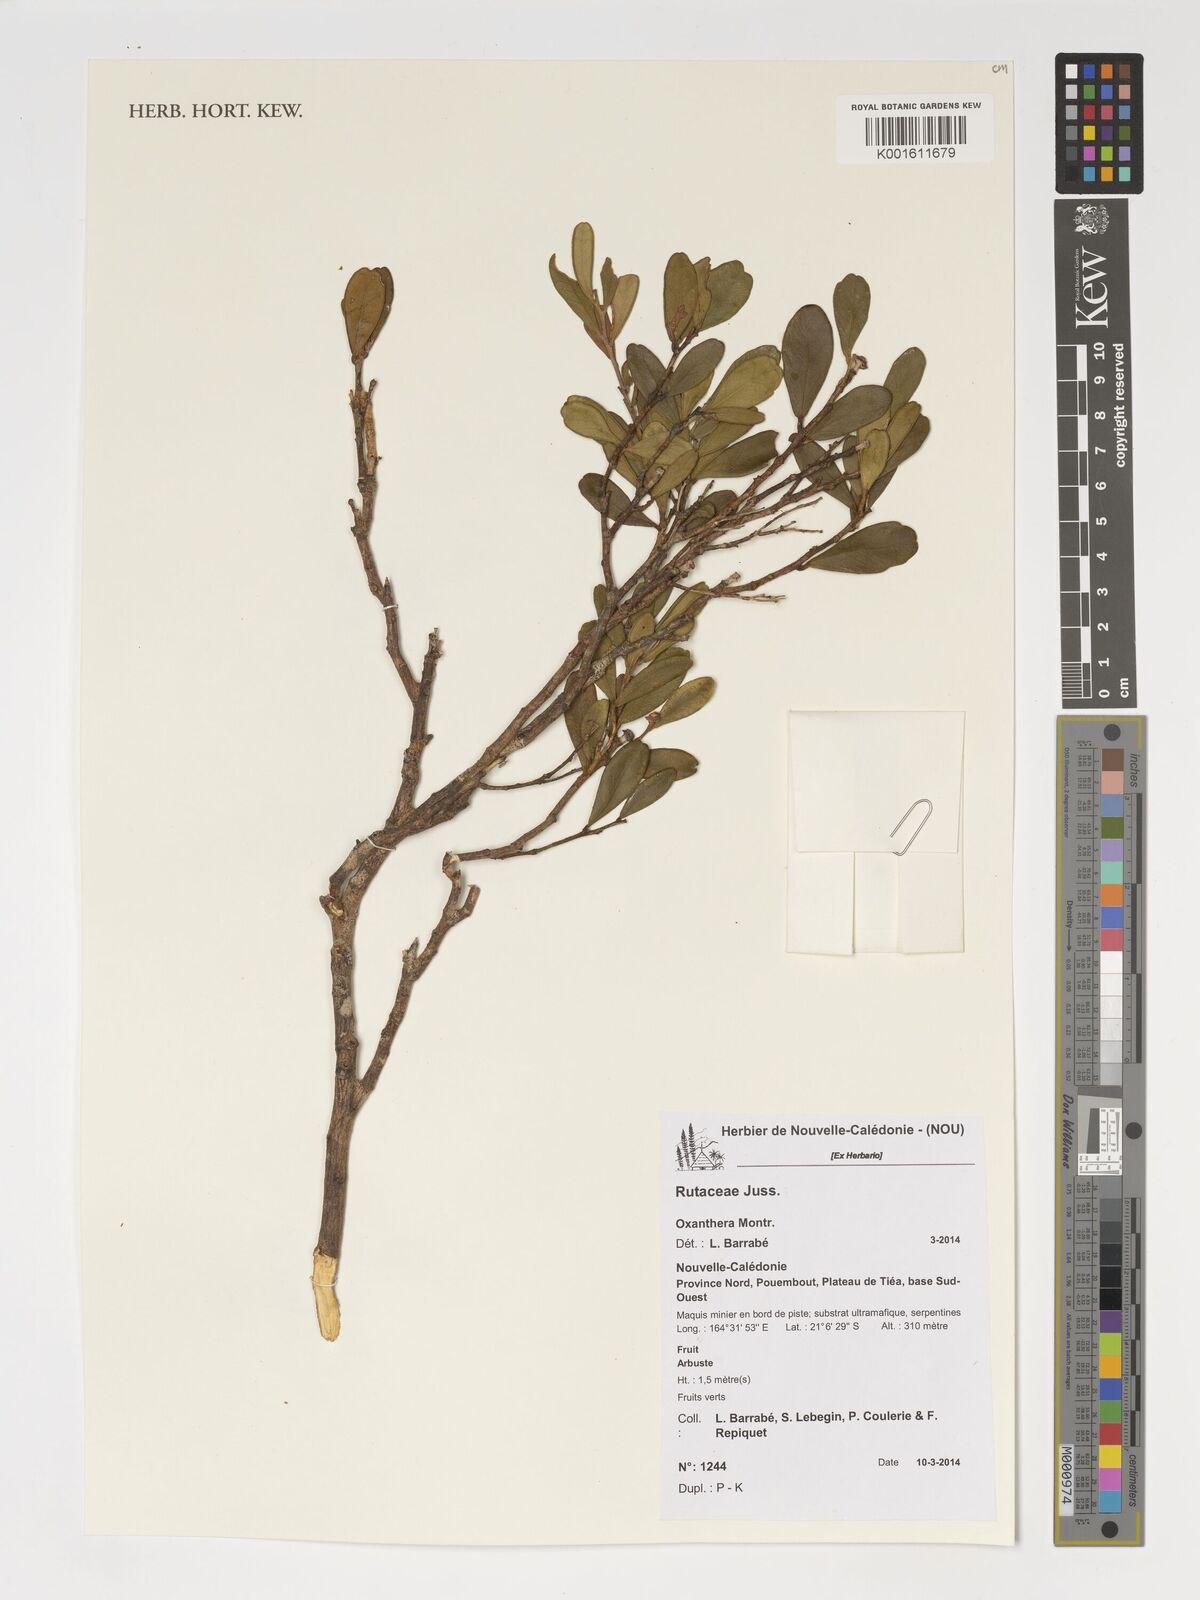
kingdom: Plantae
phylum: Tracheophyta
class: Magnoliopsida
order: Sapindales
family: Rutaceae
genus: Citrus
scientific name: Citrus
